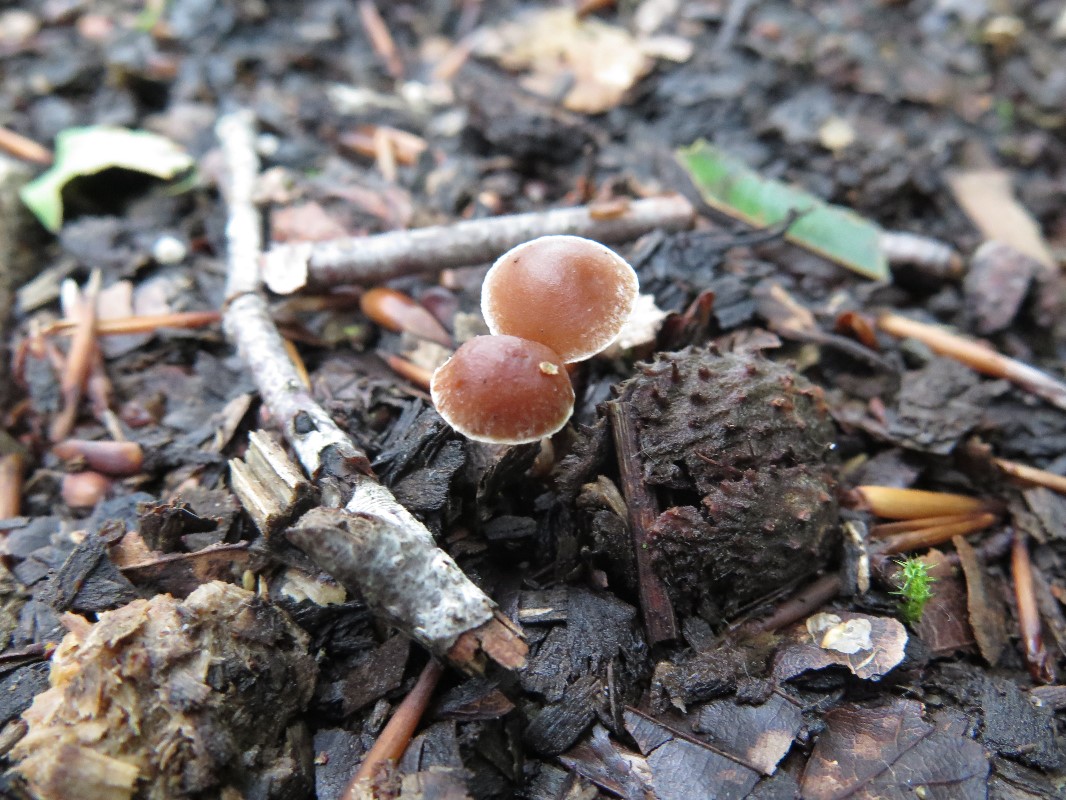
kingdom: Fungi
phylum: Basidiomycota
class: Agaricomycetes
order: Agaricales
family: Strophariaceae
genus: Deconica
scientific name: Deconica phyllogena
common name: spættet stråhat
